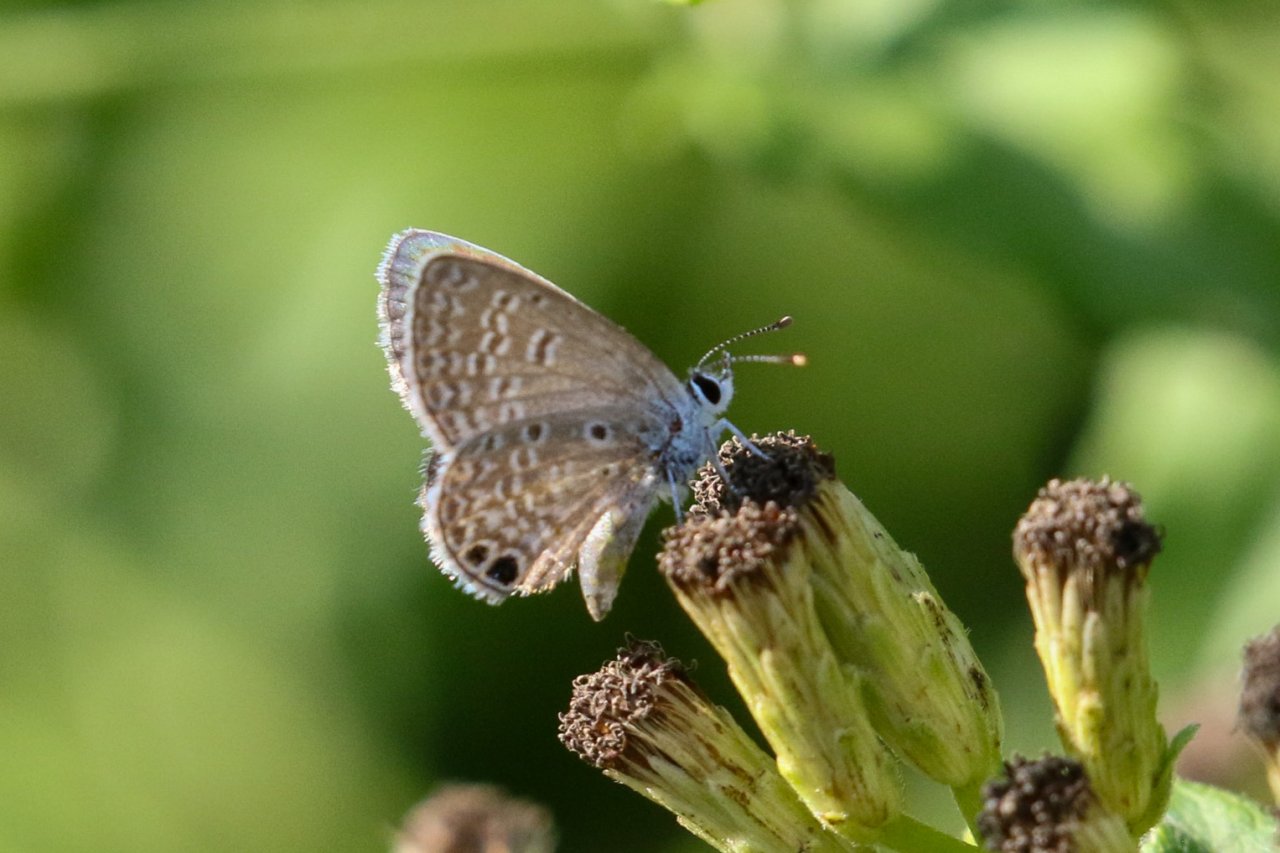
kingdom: Animalia
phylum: Arthropoda
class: Insecta
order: Lepidoptera
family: Lycaenidae
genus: Hemiargus
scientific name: Hemiargus ceraunus
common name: Ceraunus Blue
